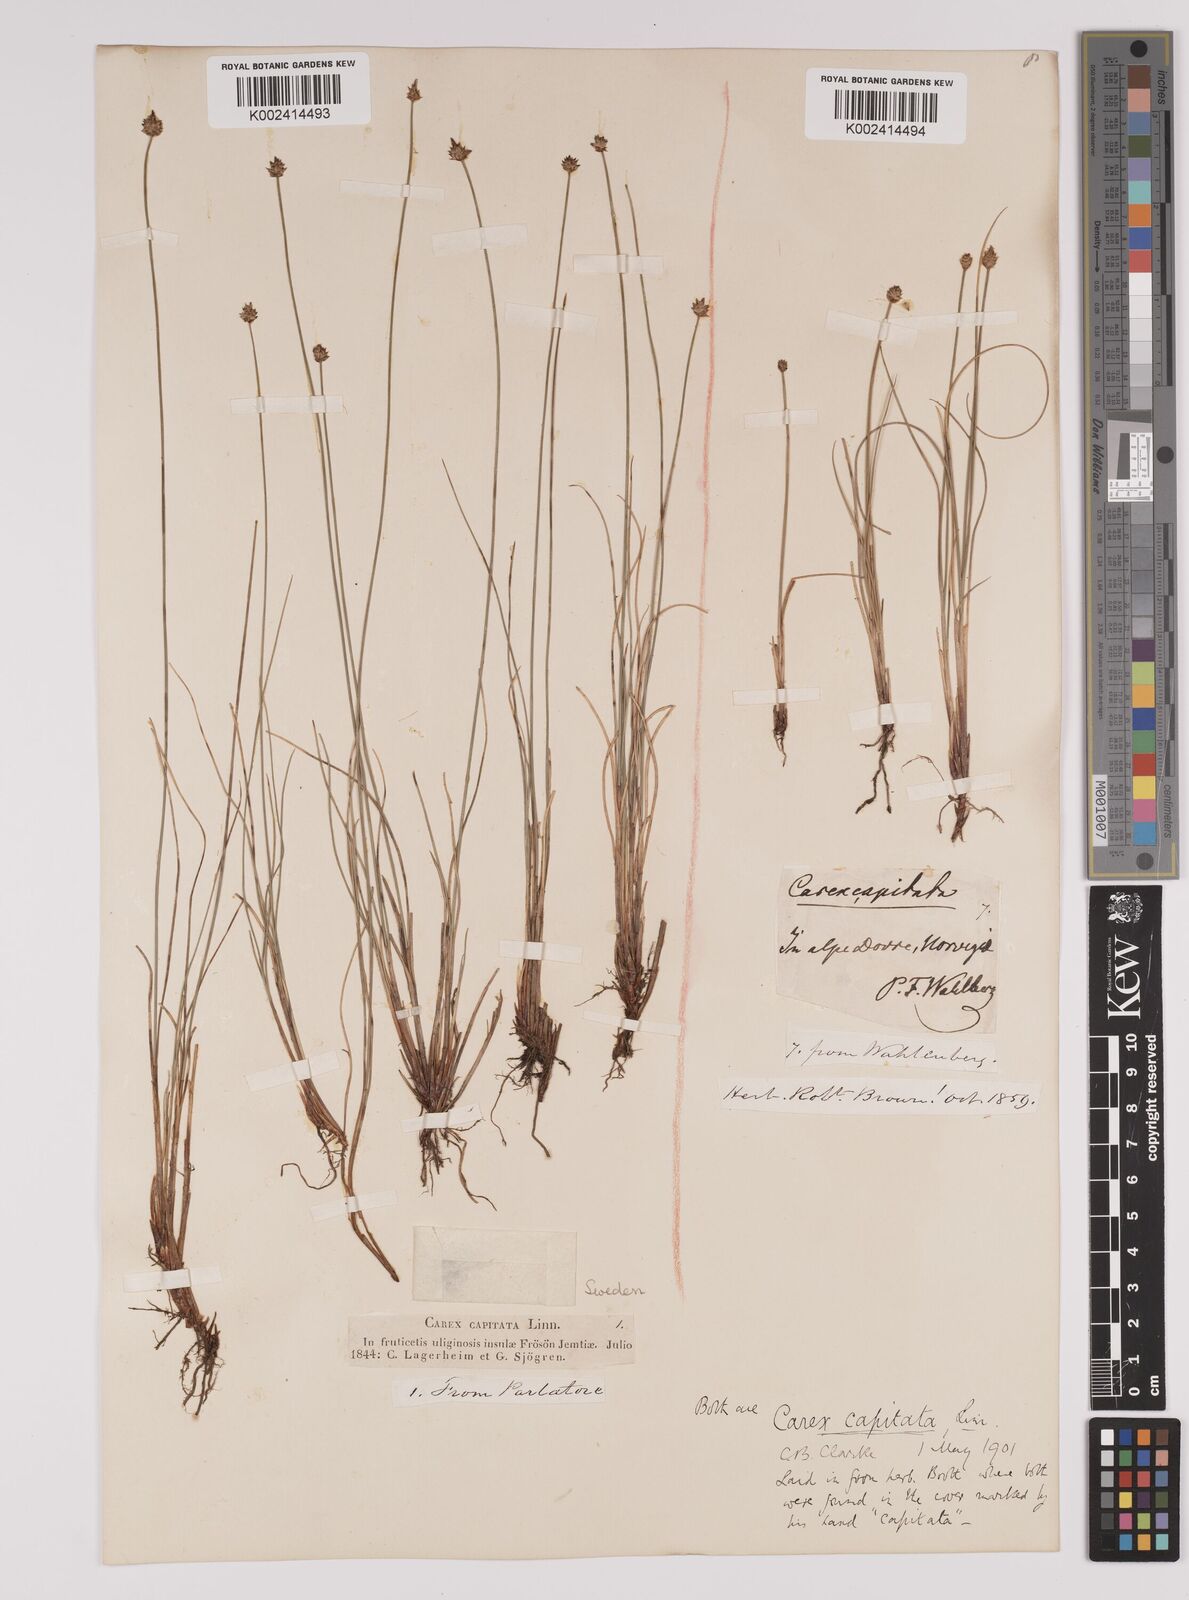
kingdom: Plantae
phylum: Tracheophyta
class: Liliopsida
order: Poales
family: Cyperaceae
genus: Carex
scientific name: Carex capitata
